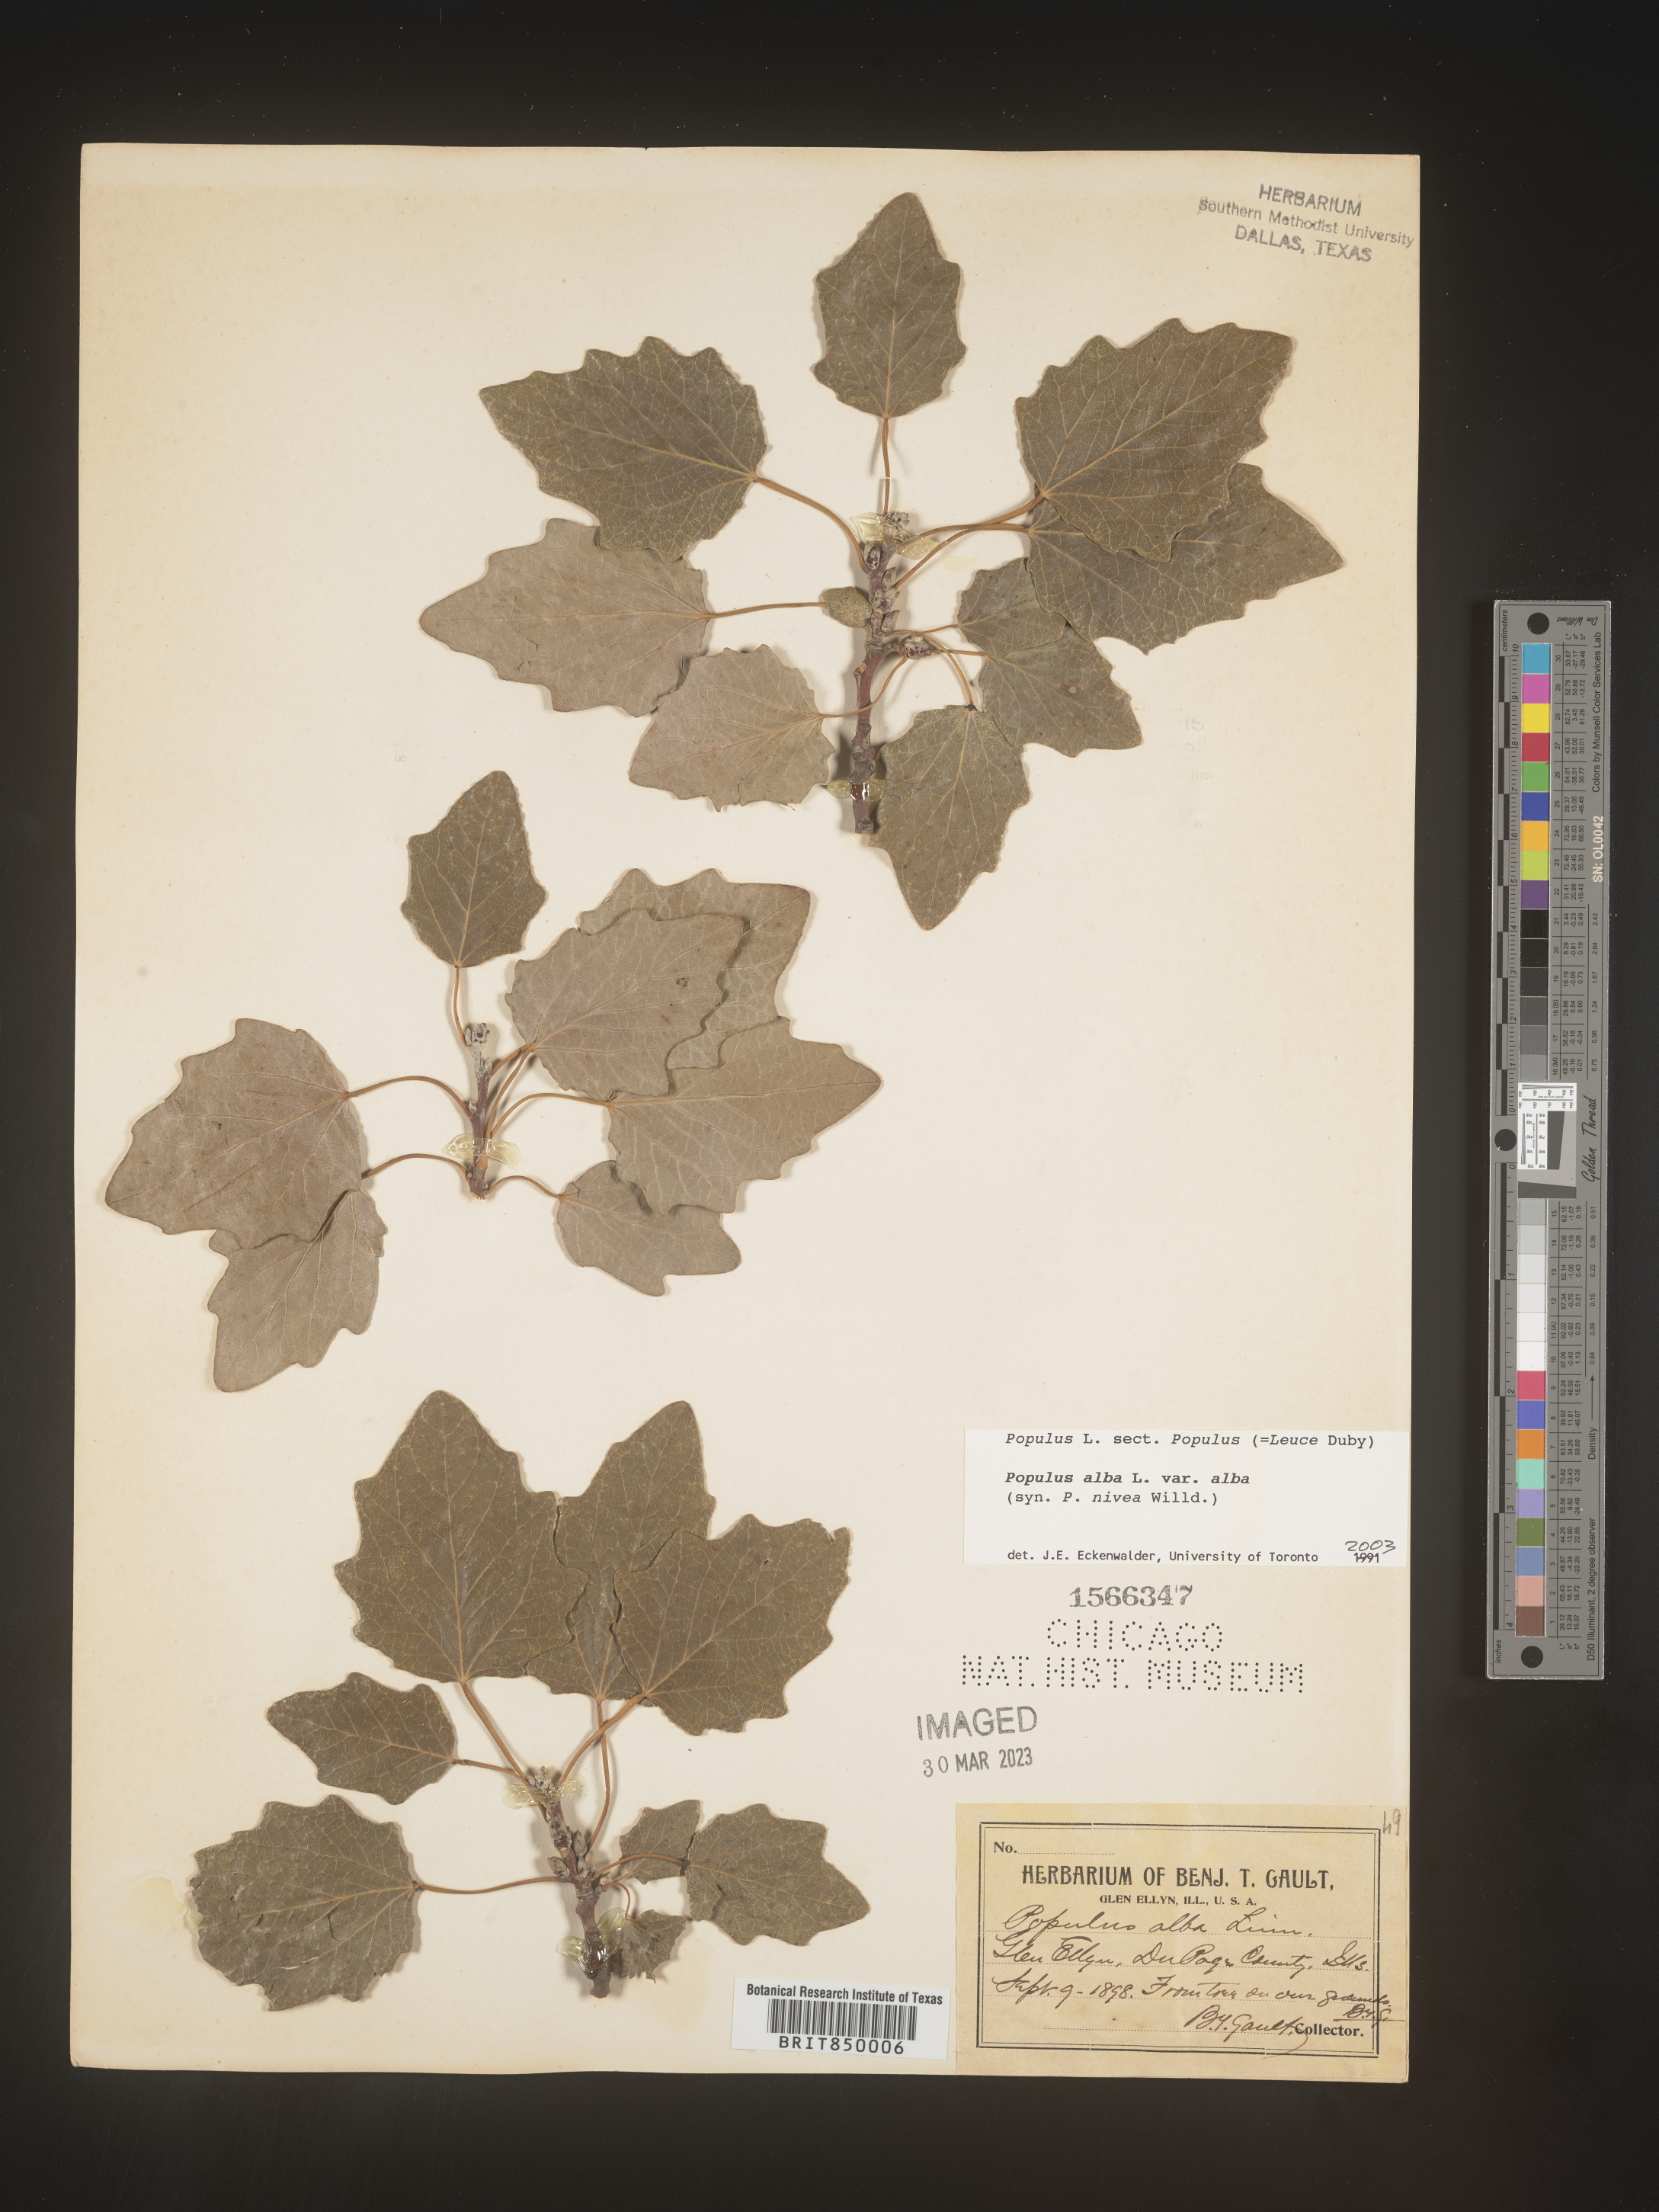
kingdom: Plantae
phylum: Tracheophyta
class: Magnoliopsida
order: Malpighiales
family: Salicaceae
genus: Populus
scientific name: Populus alba
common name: White poplar
